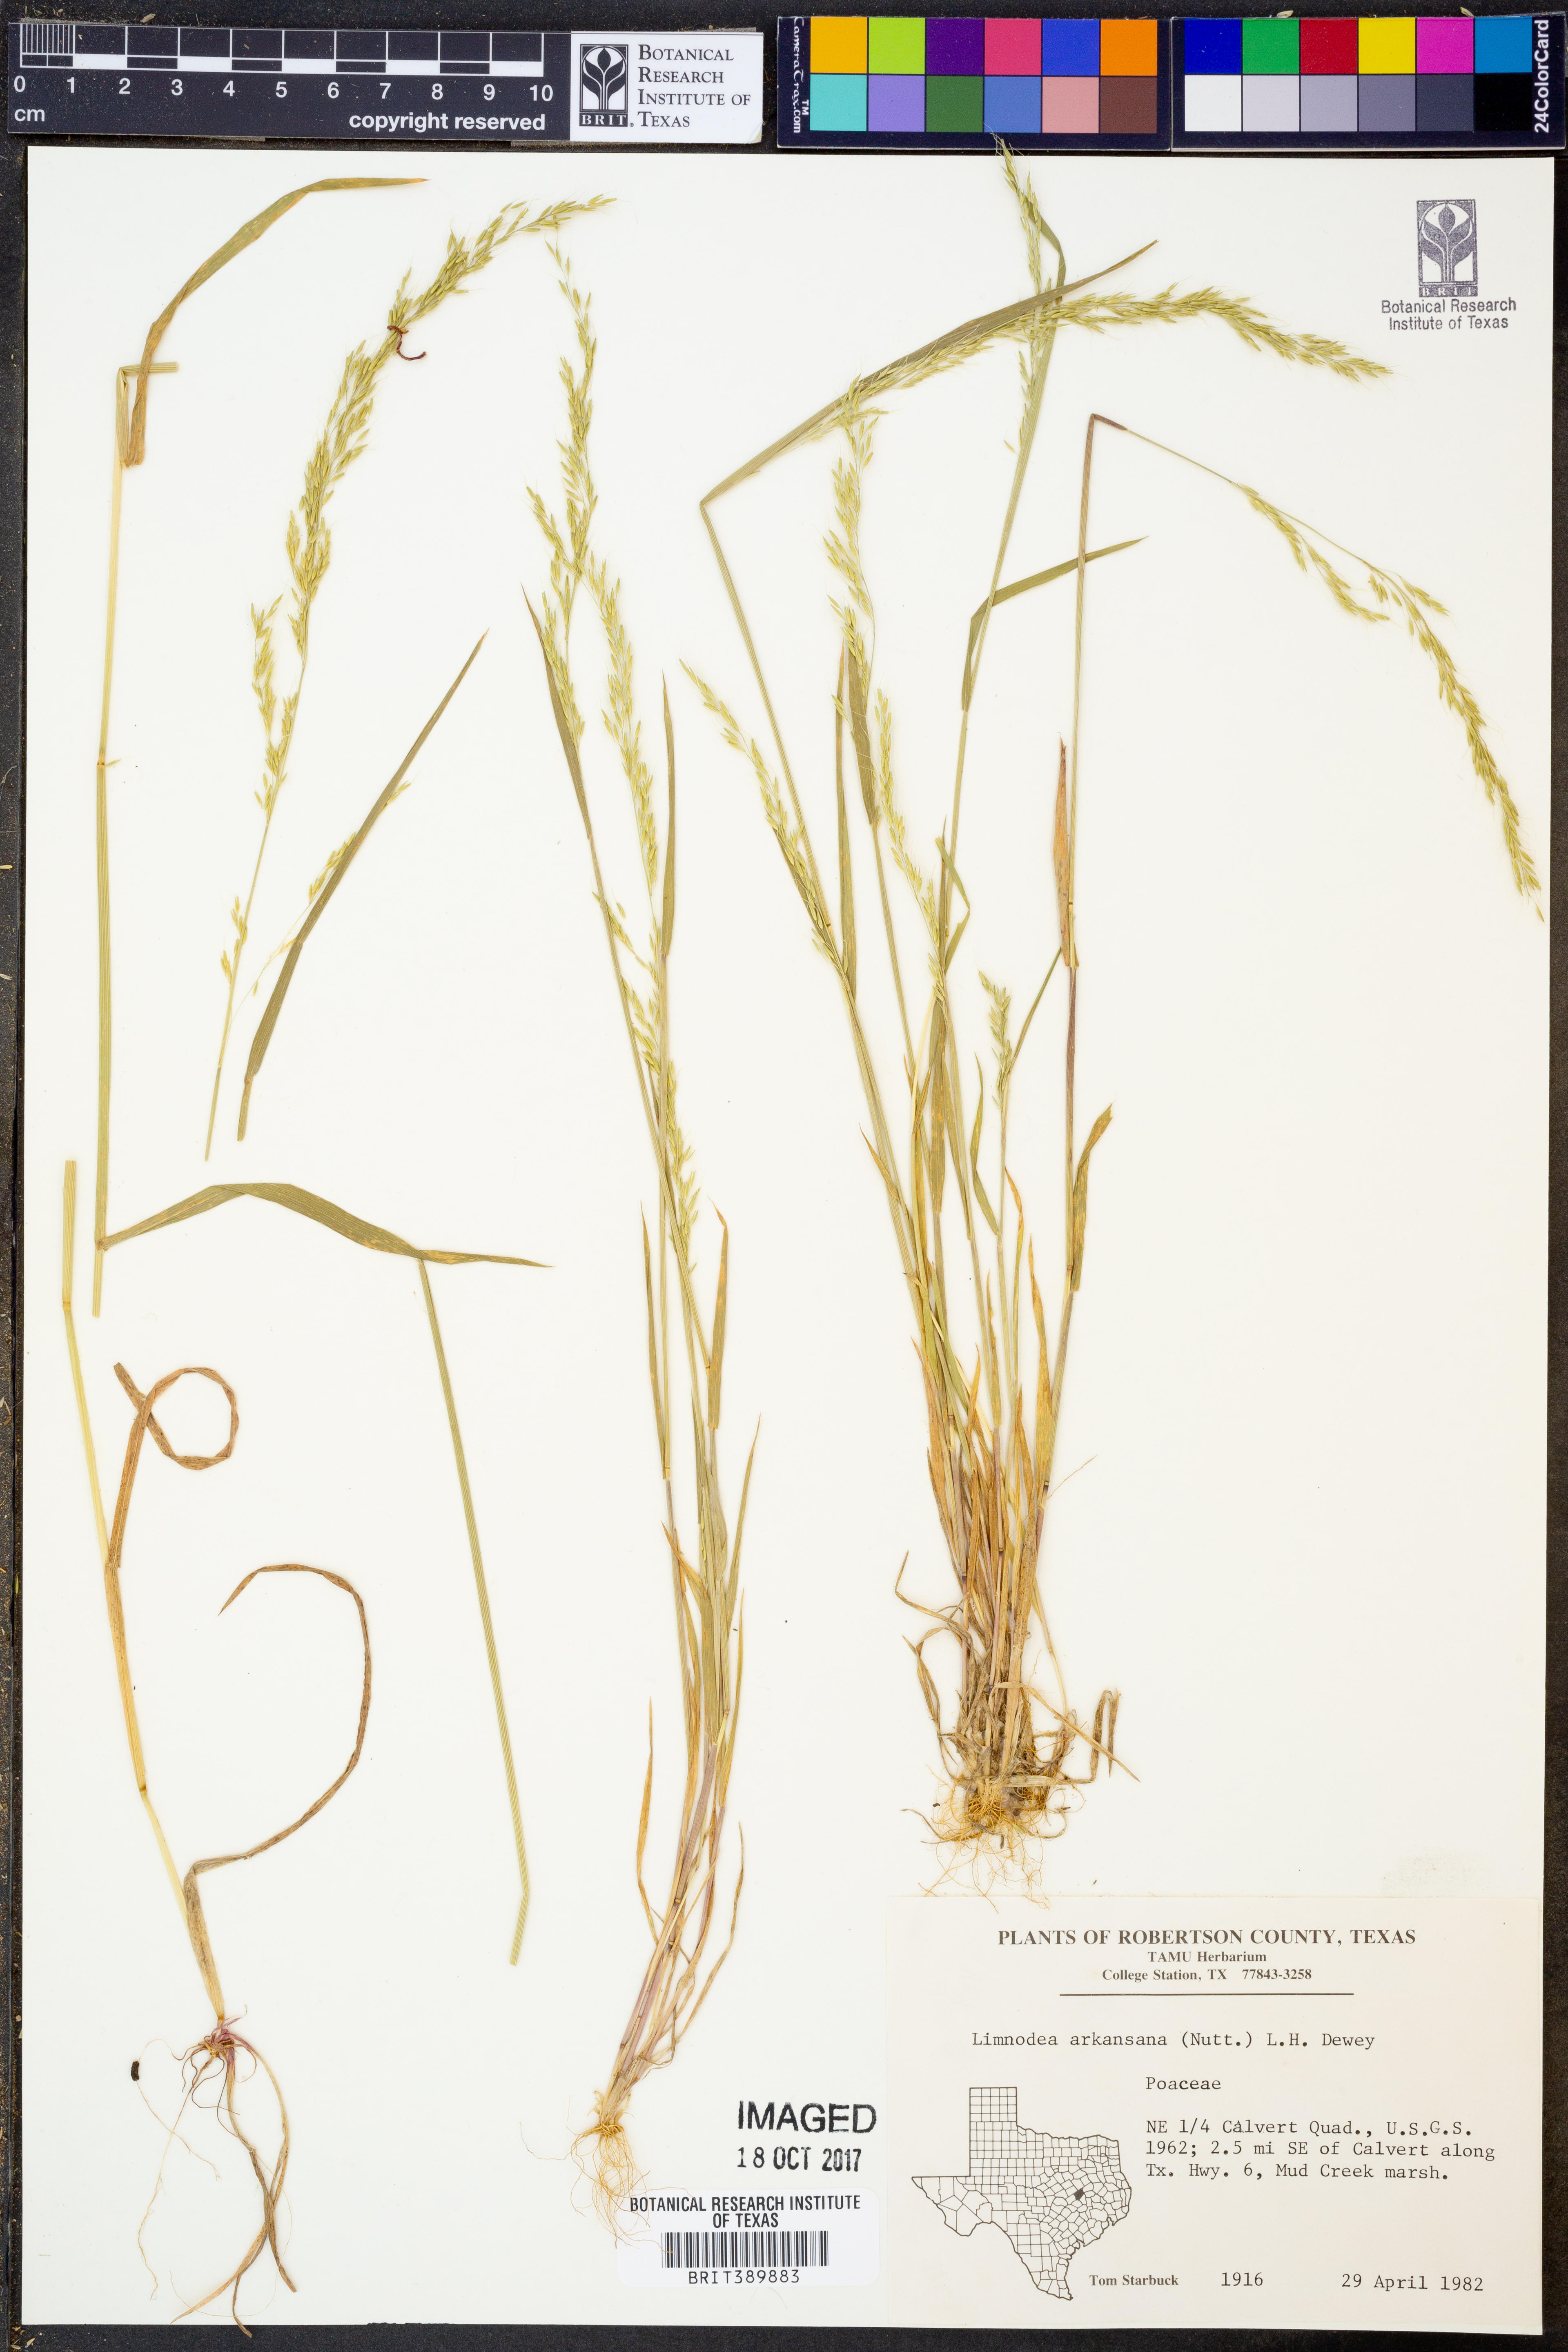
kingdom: Plantae
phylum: Tracheophyta
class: Liliopsida
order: Poales
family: Poaceae
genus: Limnodea
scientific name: Limnodea arkansana
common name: Ozark-grass
